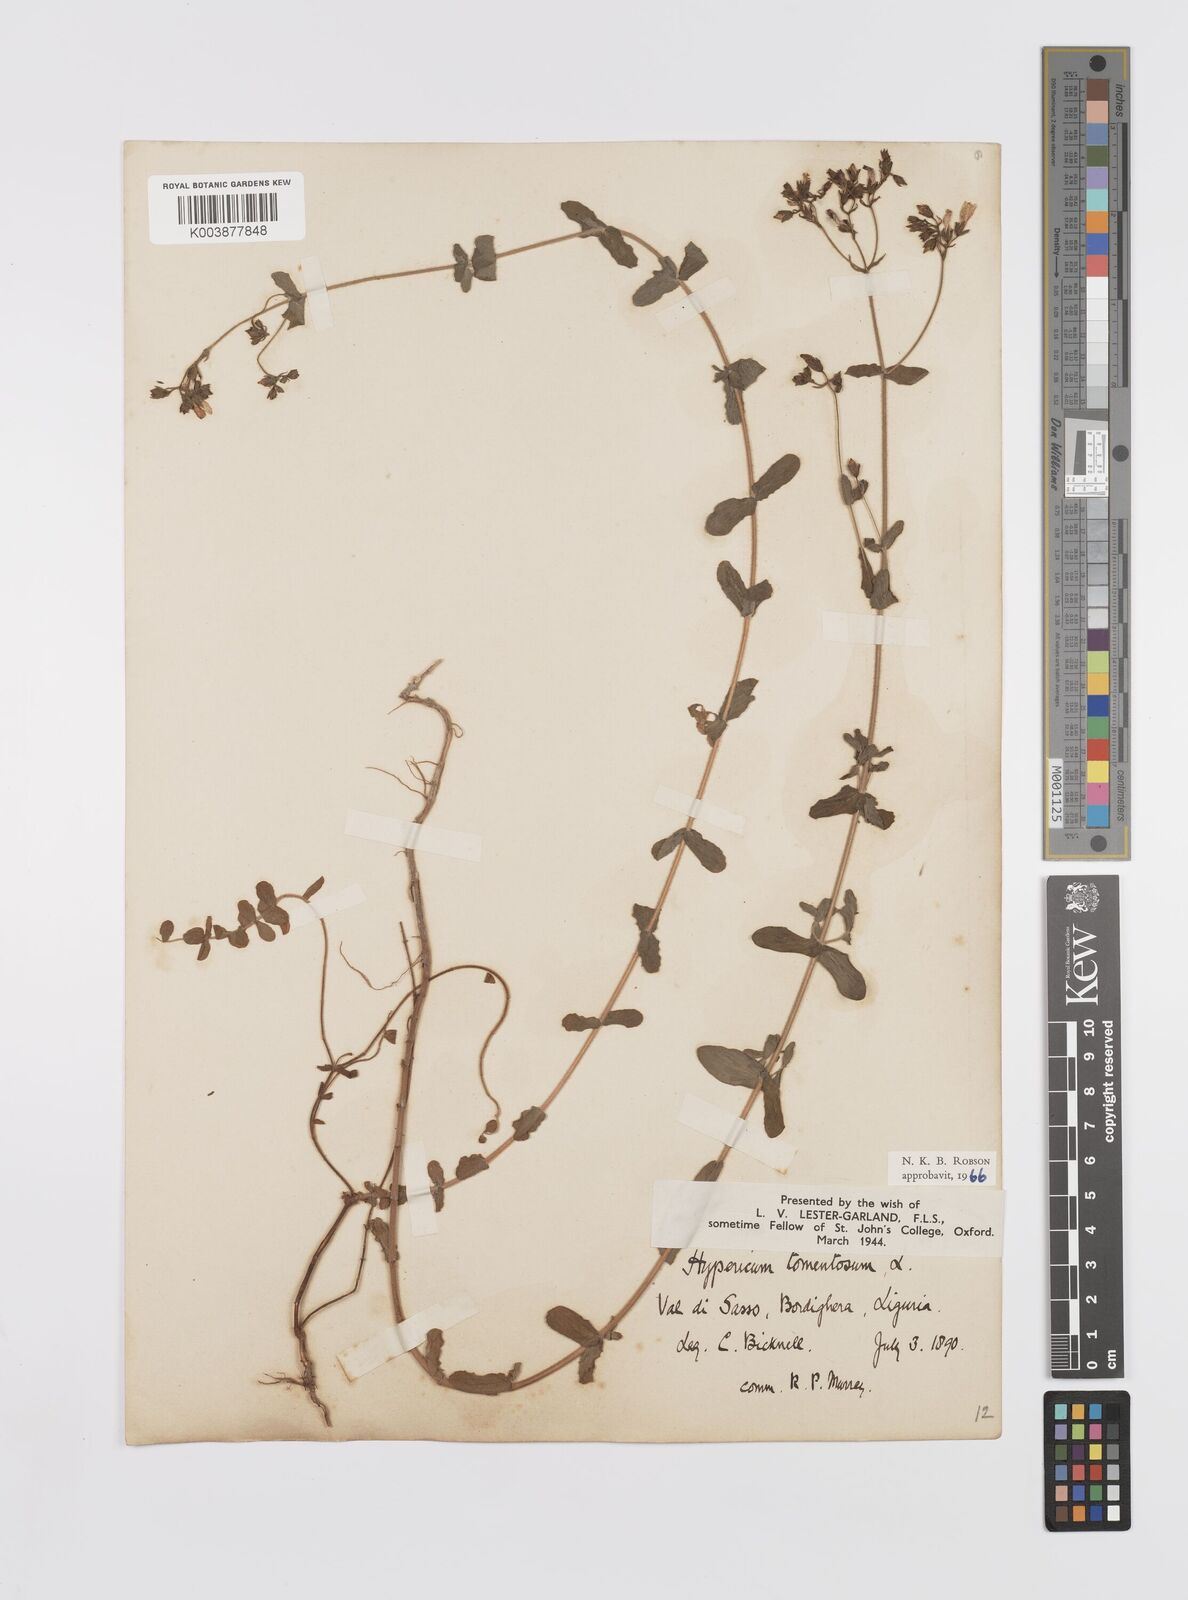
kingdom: Plantae
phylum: Tracheophyta
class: Magnoliopsida
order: Malpighiales
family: Hypericaceae
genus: Hypericum
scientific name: Hypericum tomentosum
